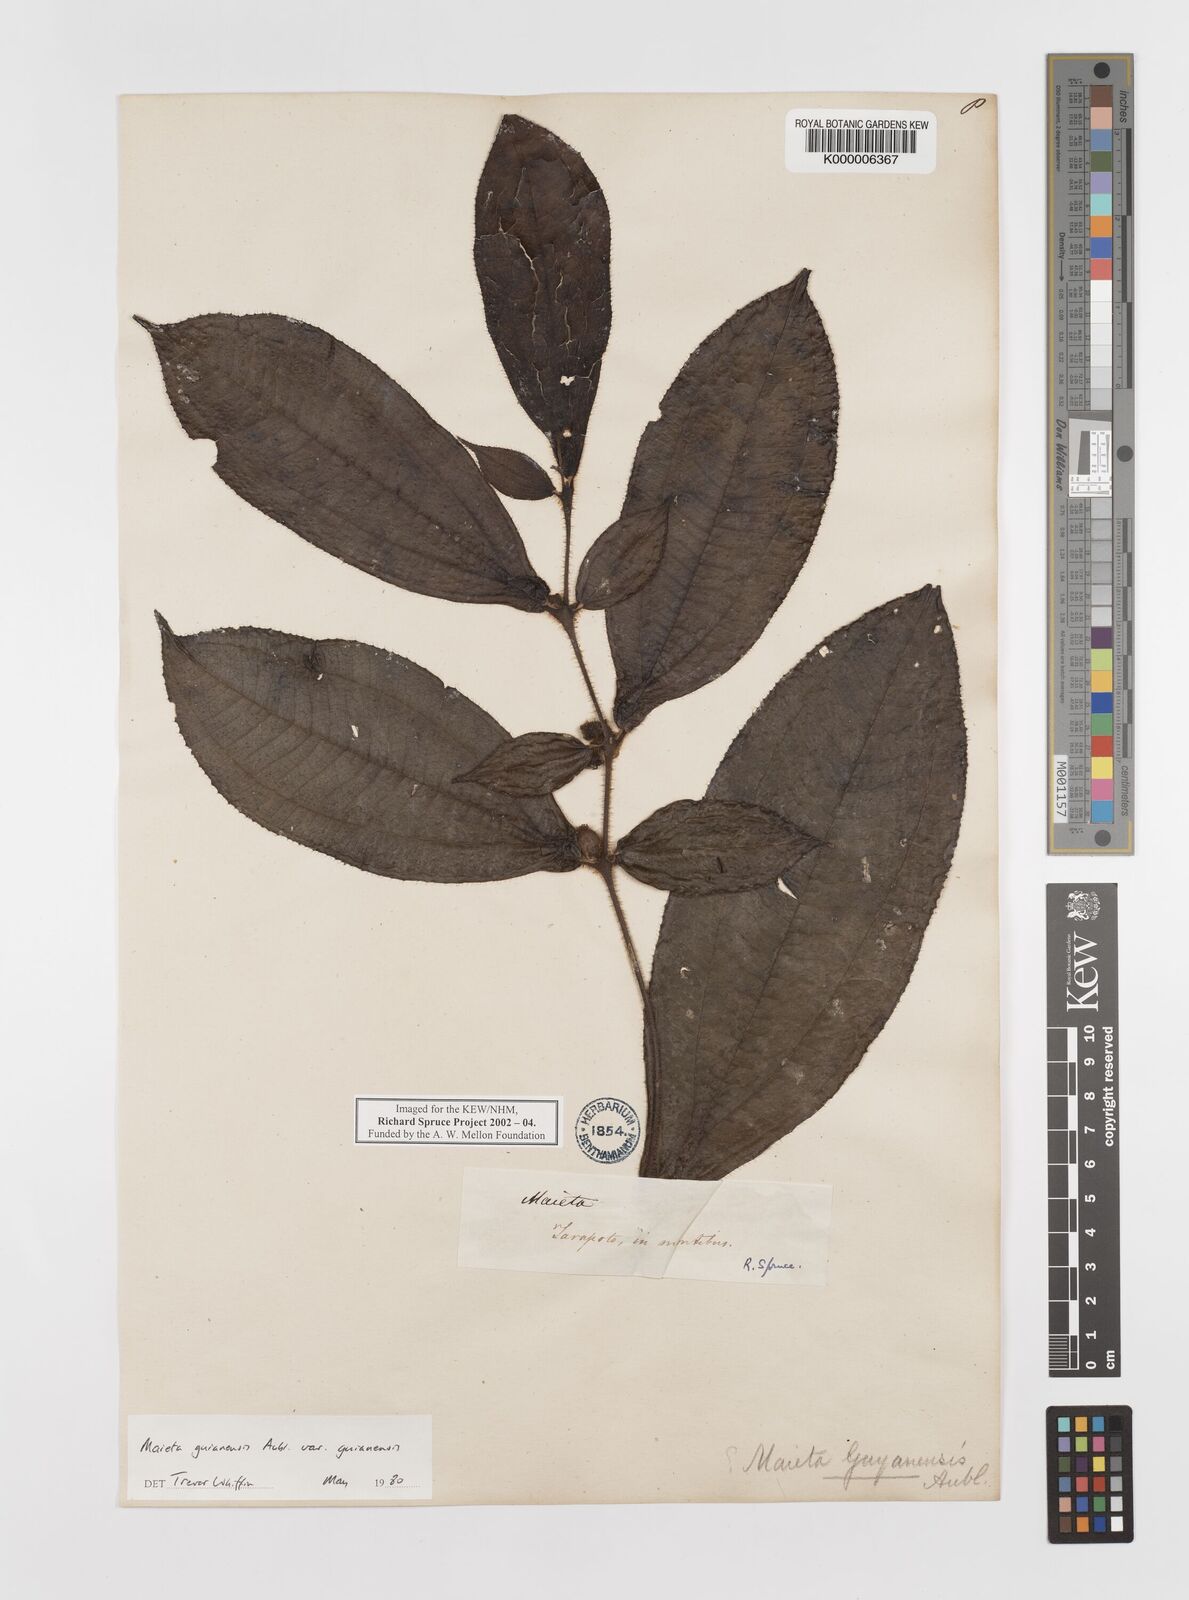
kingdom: Plantae
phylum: Tracheophyta
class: Magnoliopsida
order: Myrtales
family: Melastomataceae
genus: Miconia
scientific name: Miconia mayeta
